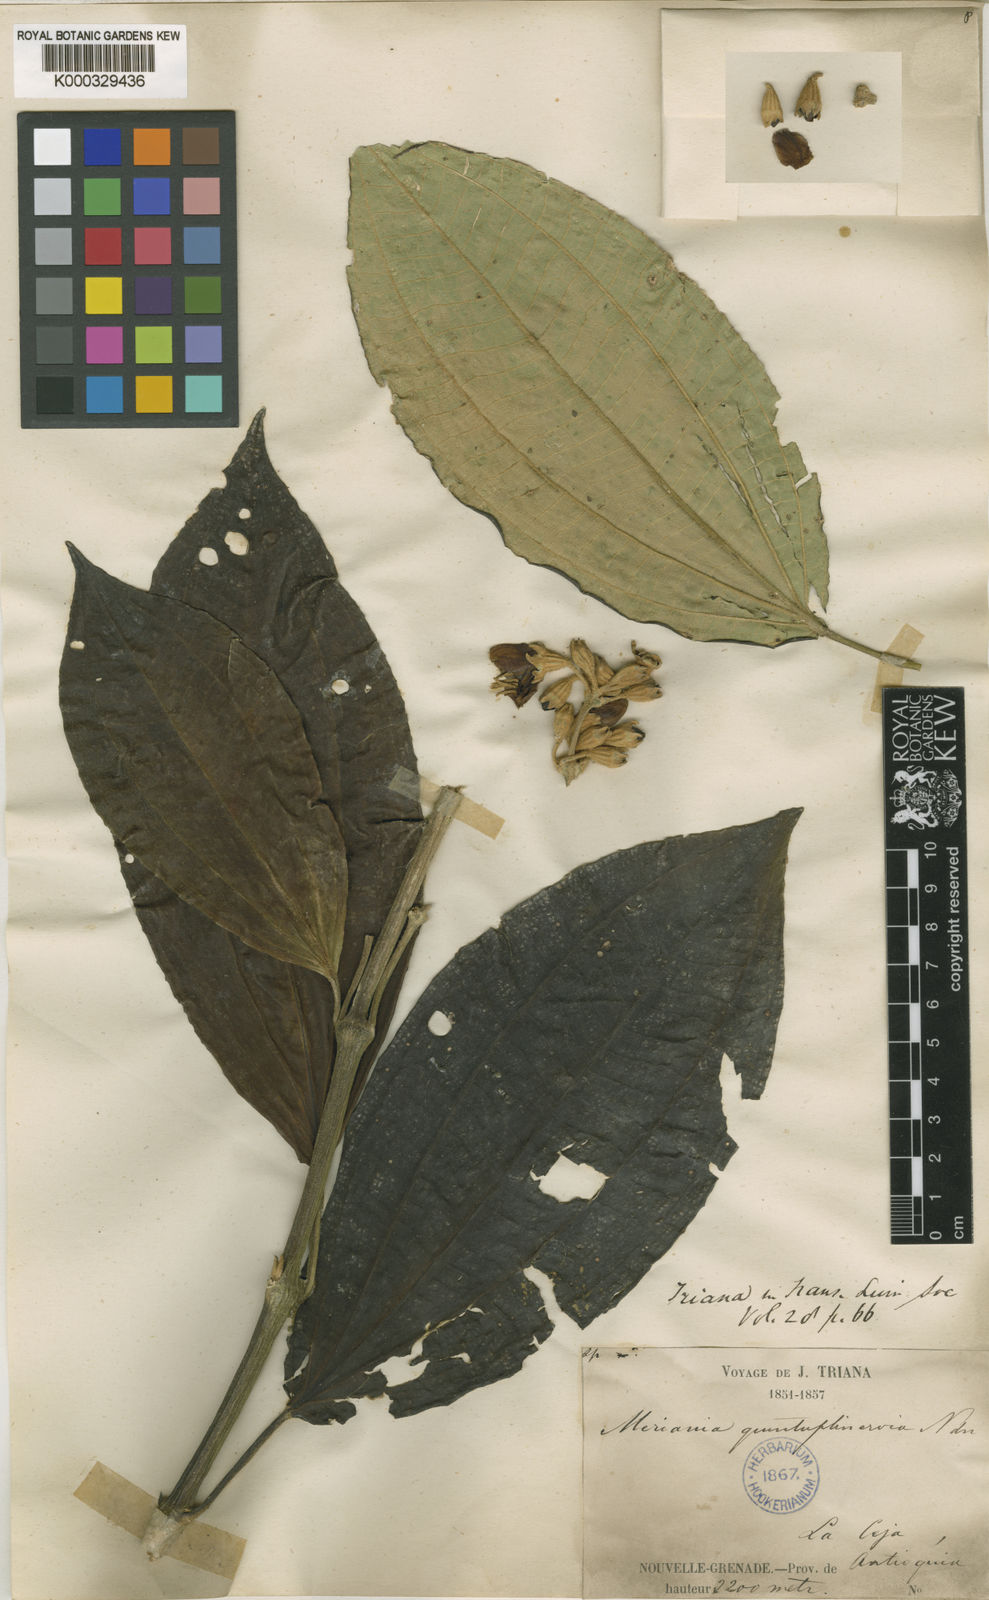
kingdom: Plantae
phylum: Tracheophyta
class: Magnoliopsida
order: Myrtales
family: Melastomataceae
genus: Meriania
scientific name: Meriania quintuplinervis
